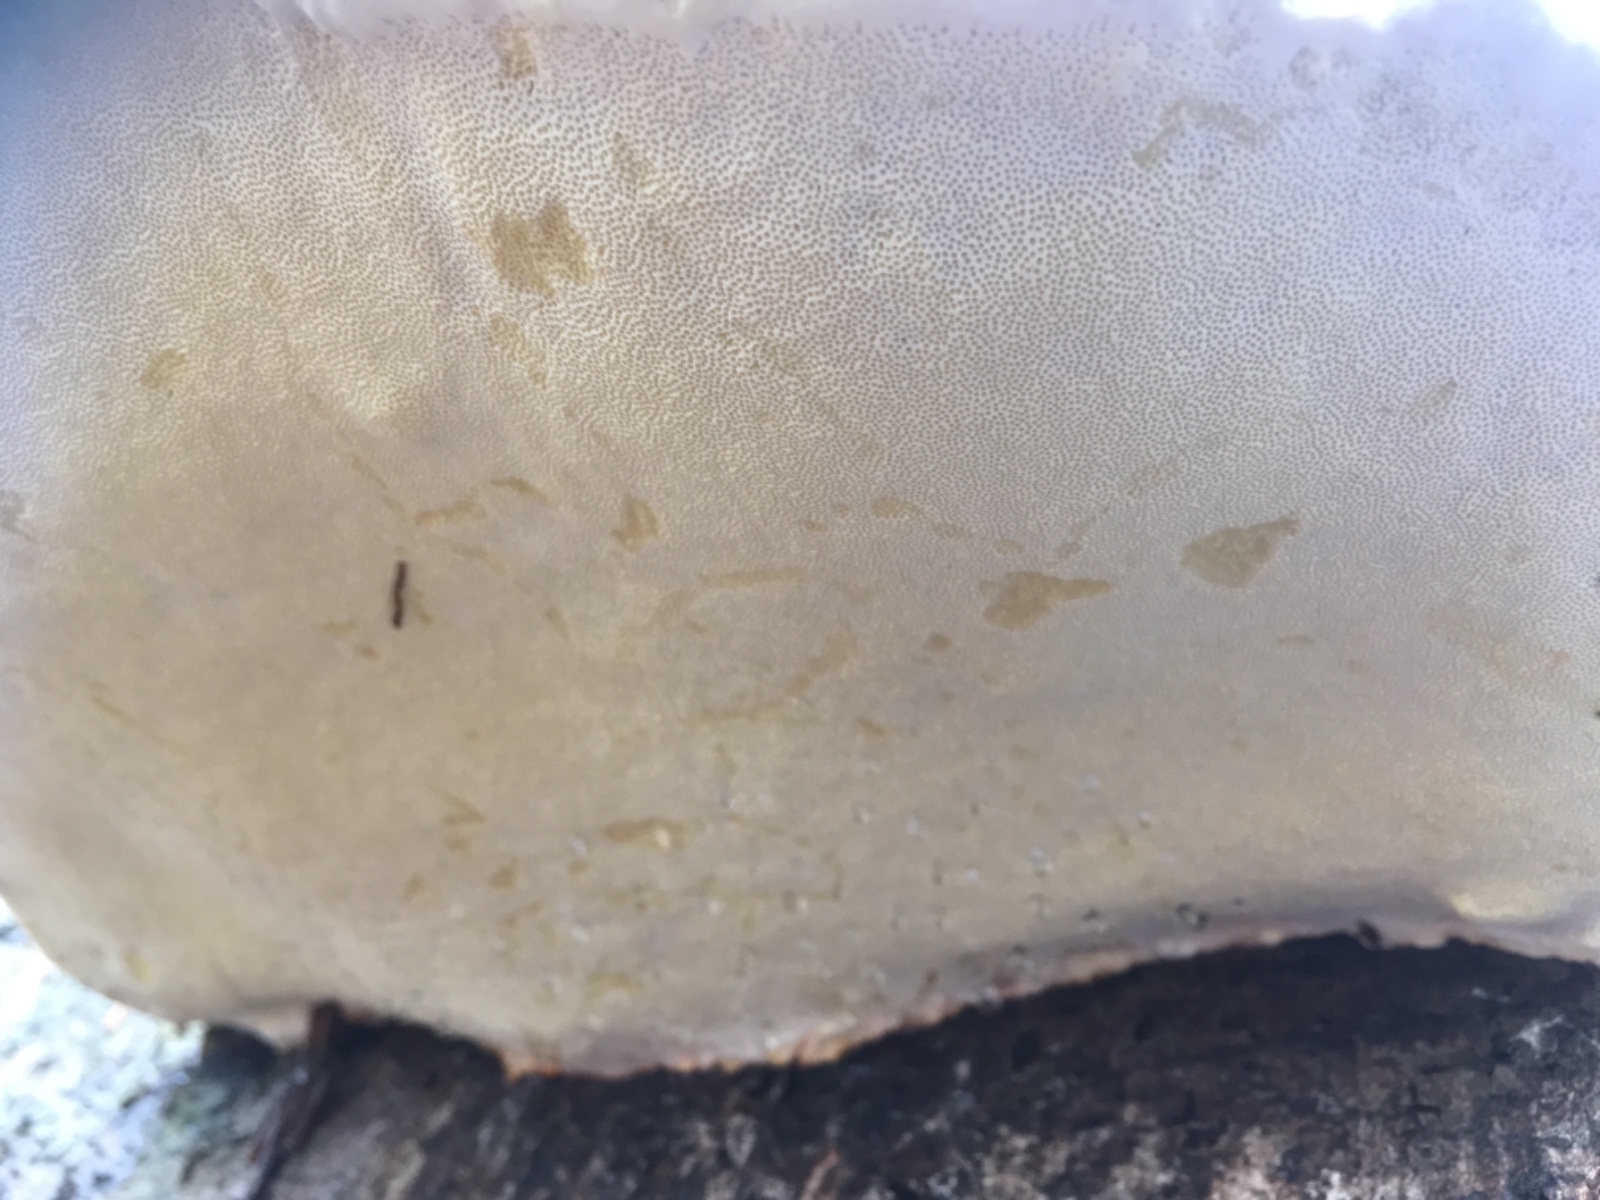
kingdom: Fungi
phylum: Basidiomycota
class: Agaricomycetes
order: Polyporales
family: Fomitopsidaceae
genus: Fomitopsis
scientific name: Fomitopsis pinicola
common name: randbæltet hovporesvamp
